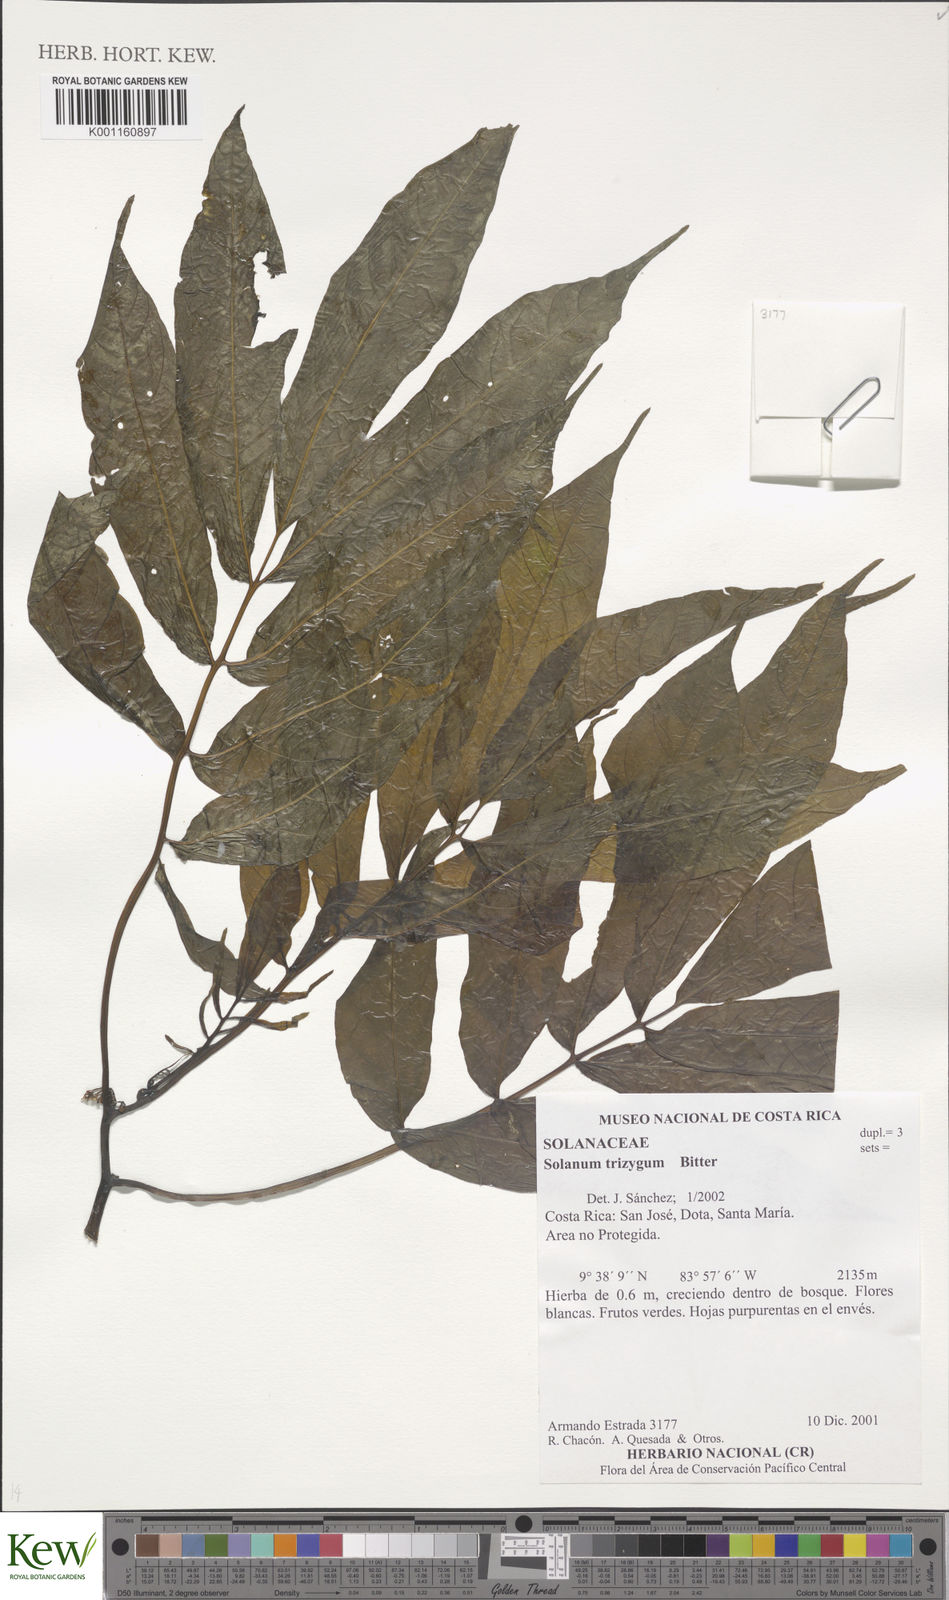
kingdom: Plantae
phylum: Tracheophyta
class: Magnoliopsida
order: Solanales
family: Solanaceae
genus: Solanum
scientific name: Solanum trizygum
